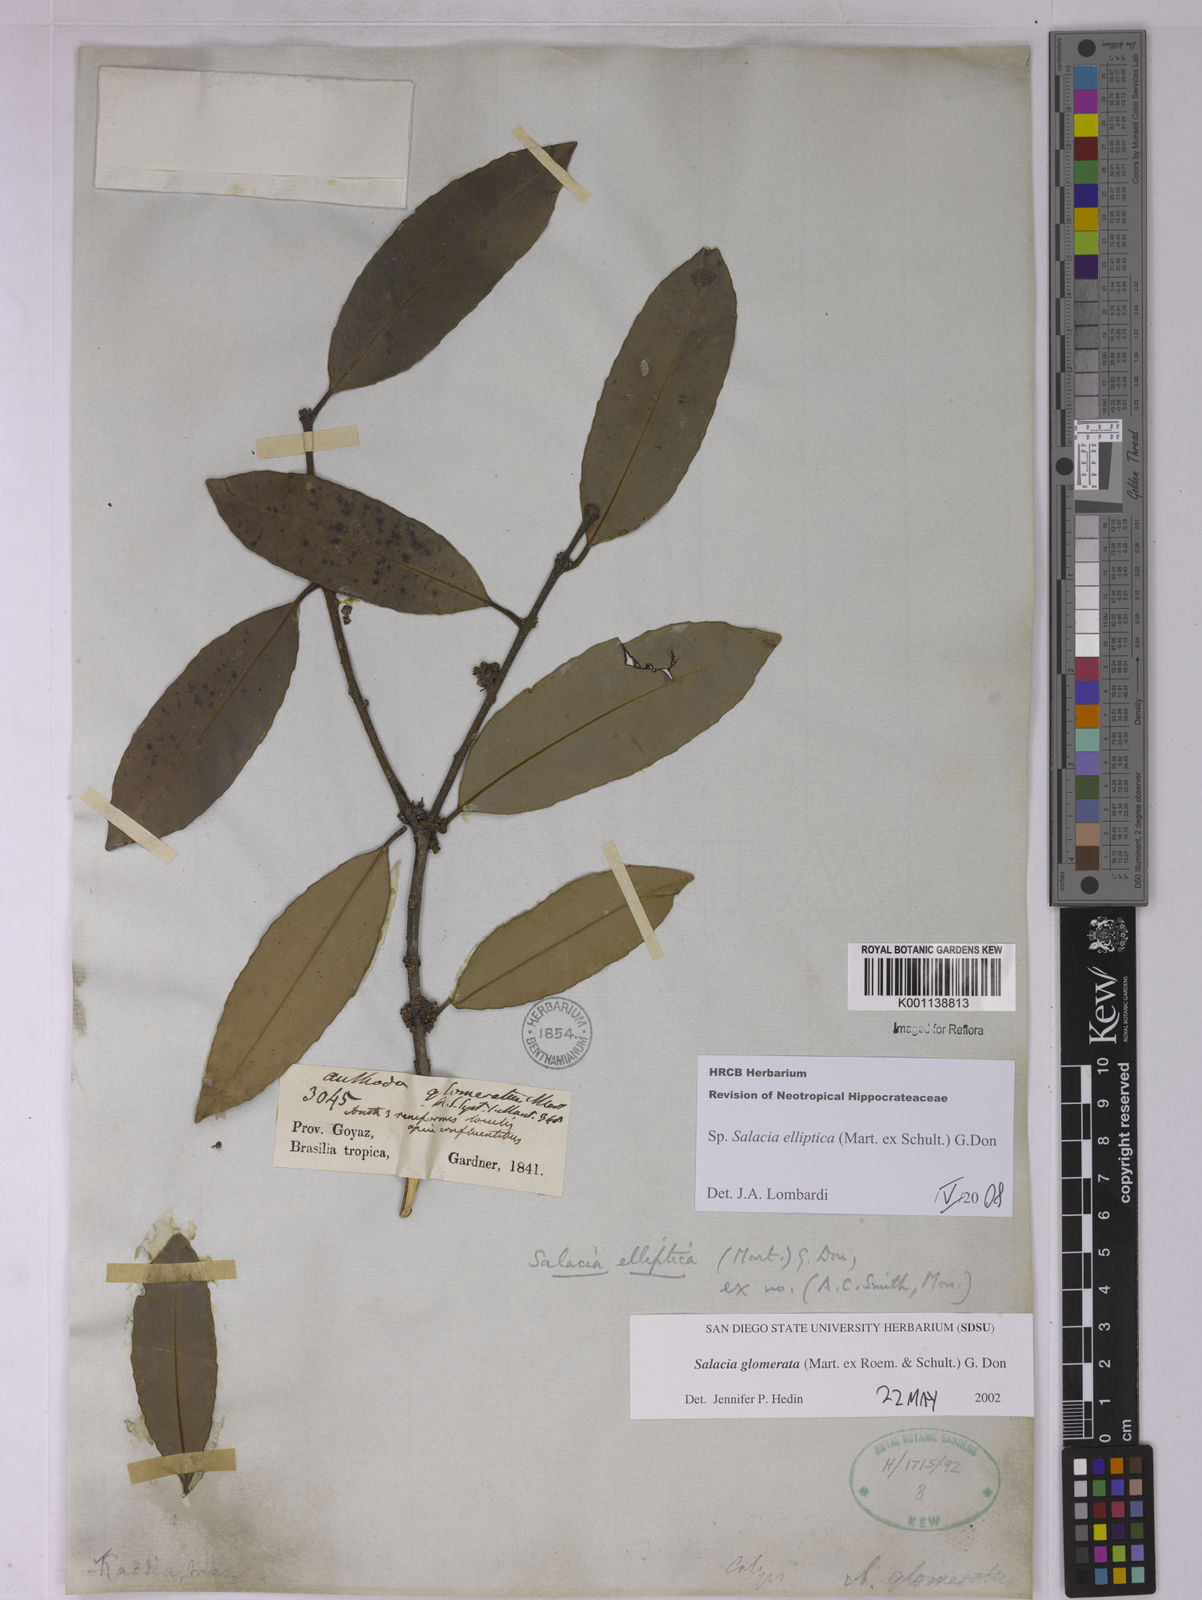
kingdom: Plantae
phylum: Tracheophyta
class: Magnoliopsida
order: Celastrales
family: Celastraceae
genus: Salacia
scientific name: Salacia elliptica
